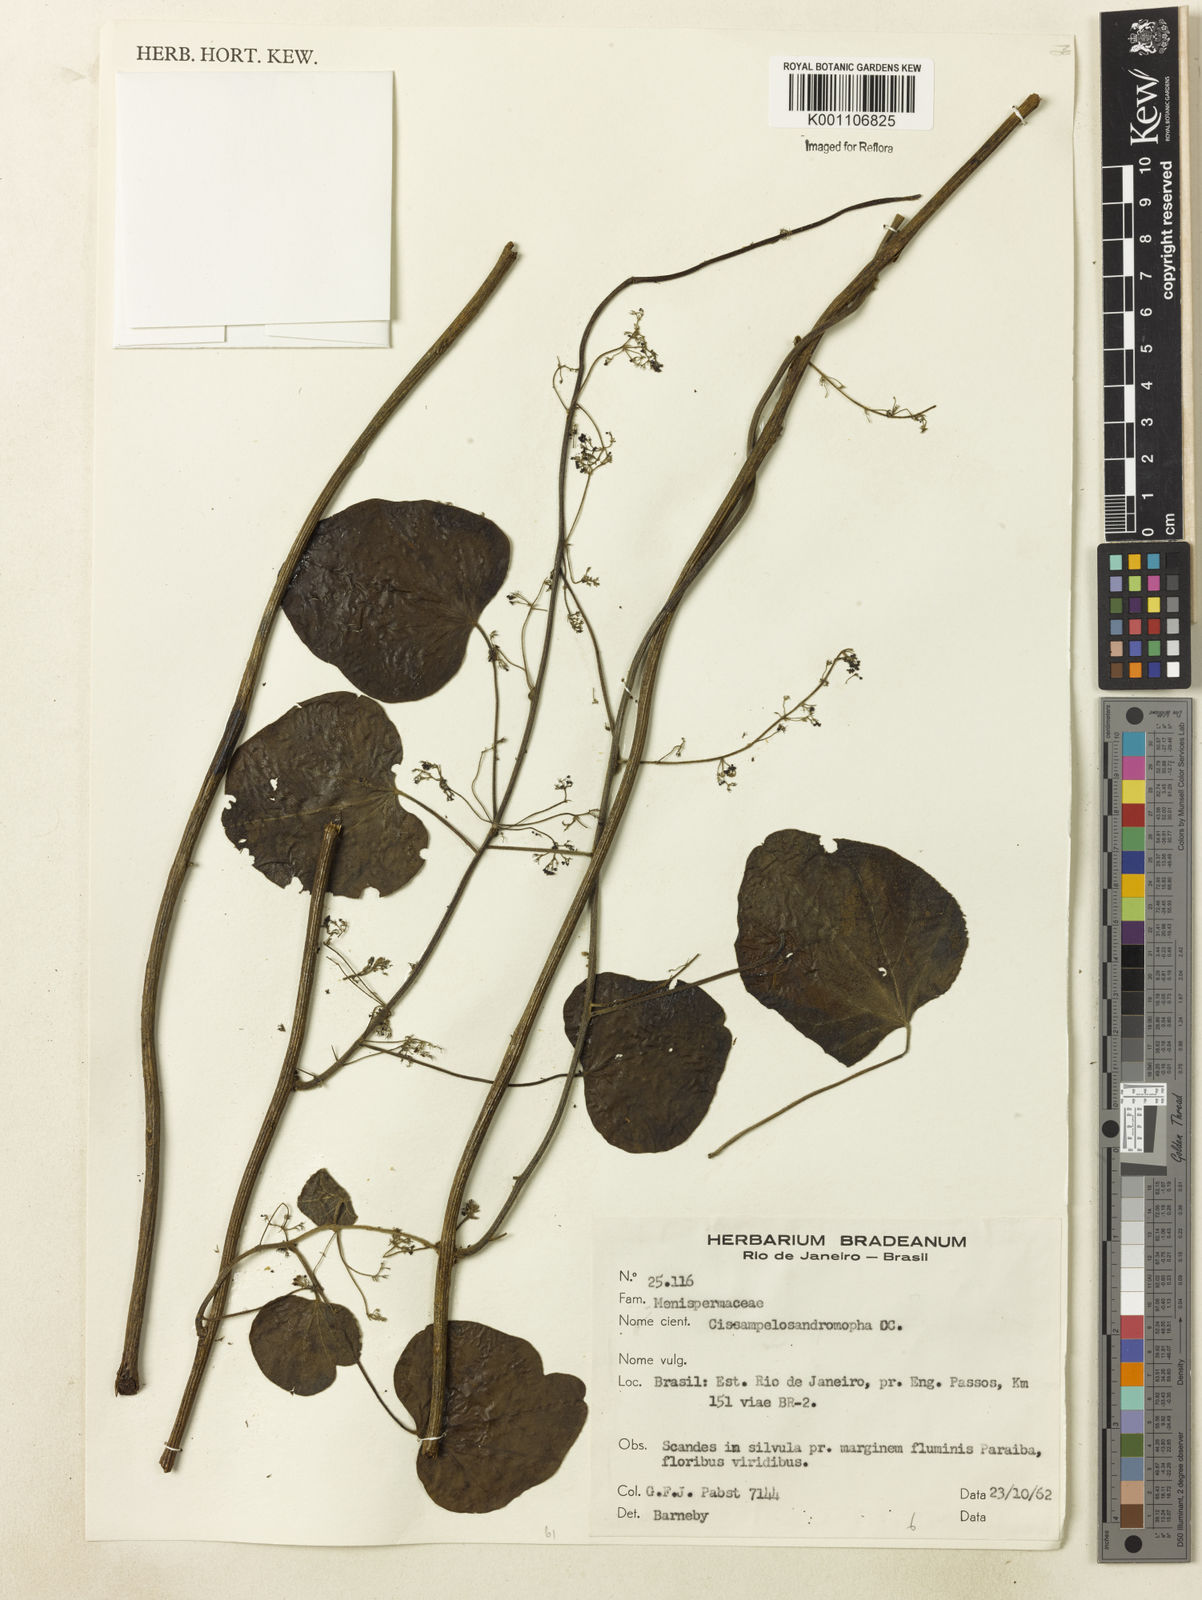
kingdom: Plantae
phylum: Tracheophyta
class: Magnoliopsida
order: Ranunculales
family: Menispermaceae
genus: Cissampelos
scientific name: Cissampelos andromorpha
